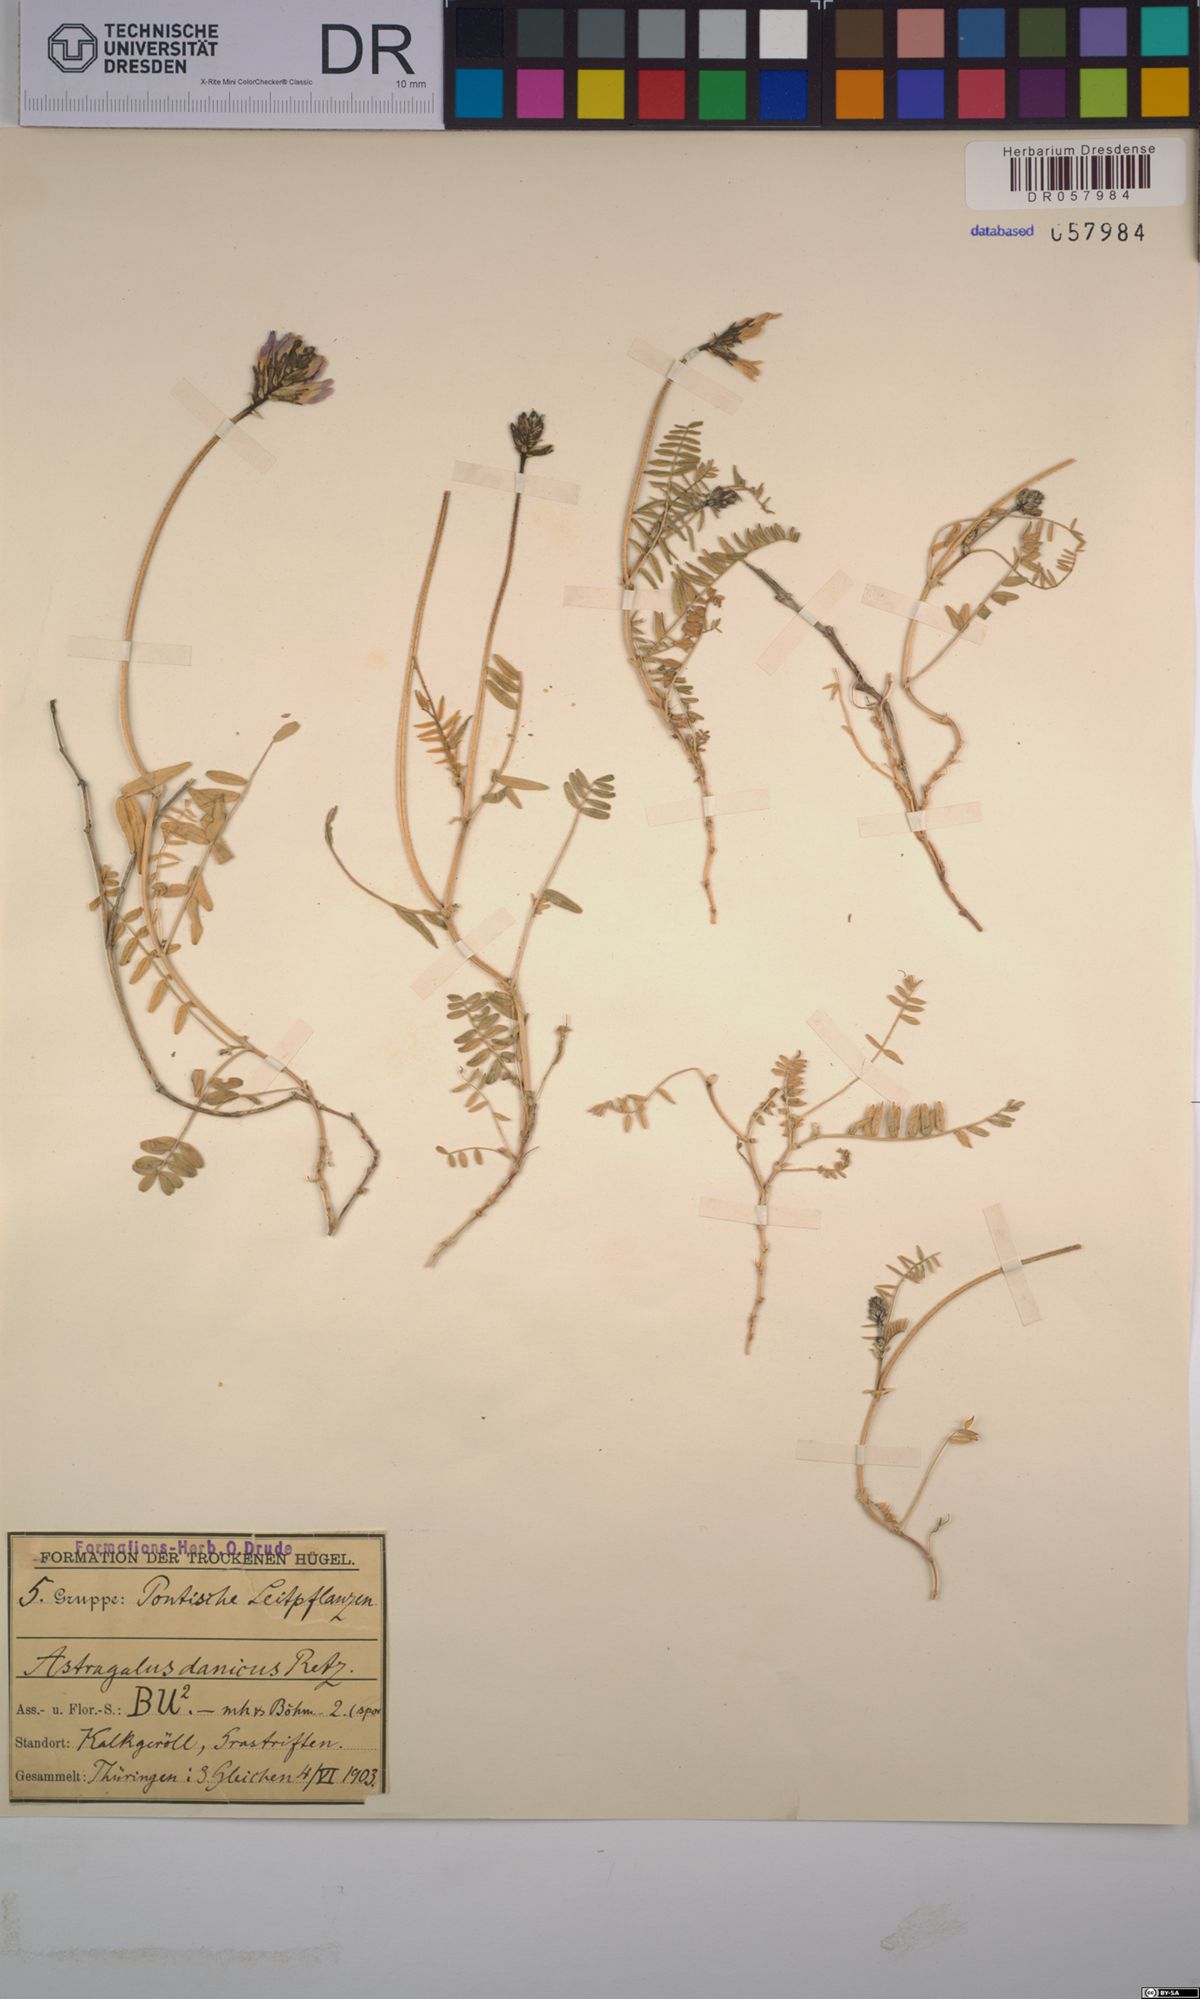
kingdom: Plantae
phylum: Tracheophyta
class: Magnoliopsida
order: Fabales
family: Fabaceae
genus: Astragalus
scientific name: Astragalus danicus
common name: Purple milk-vetch
